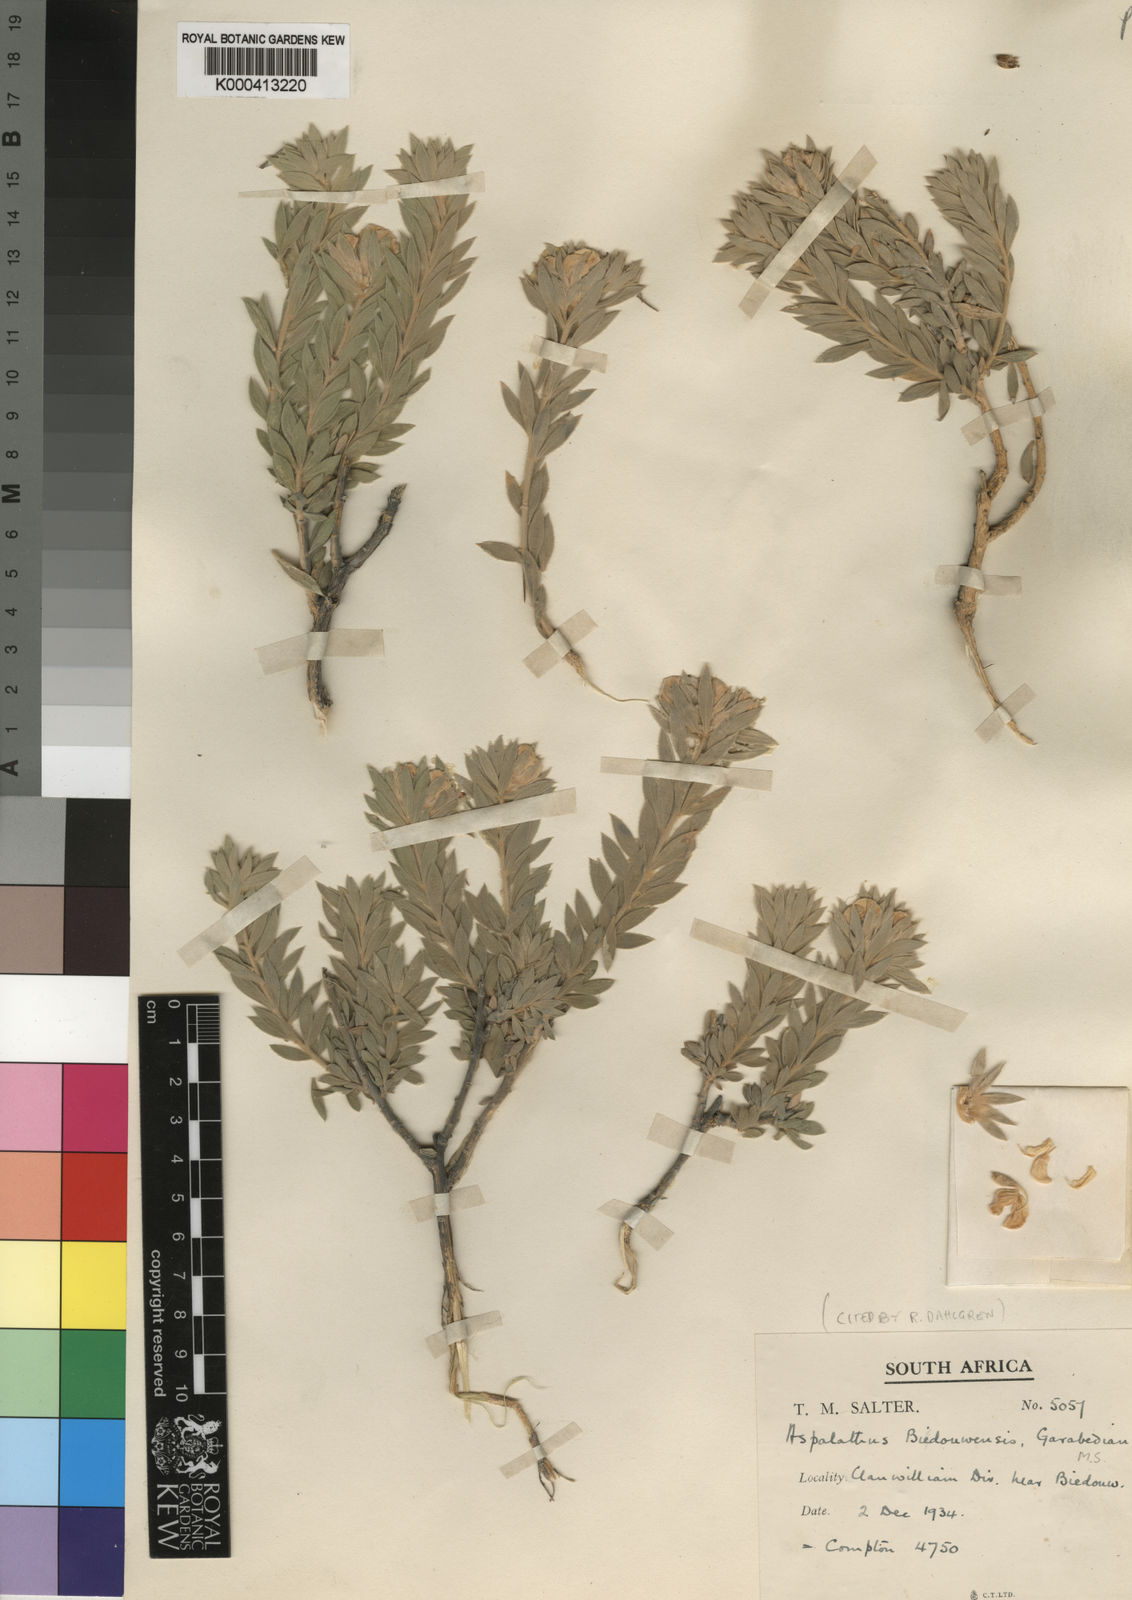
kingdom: Plantae
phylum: Tracheophyta
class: Magnoliopsida
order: Fabales
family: Fabaceae
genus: Aspalathus
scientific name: Aspalathus bidouwensis
